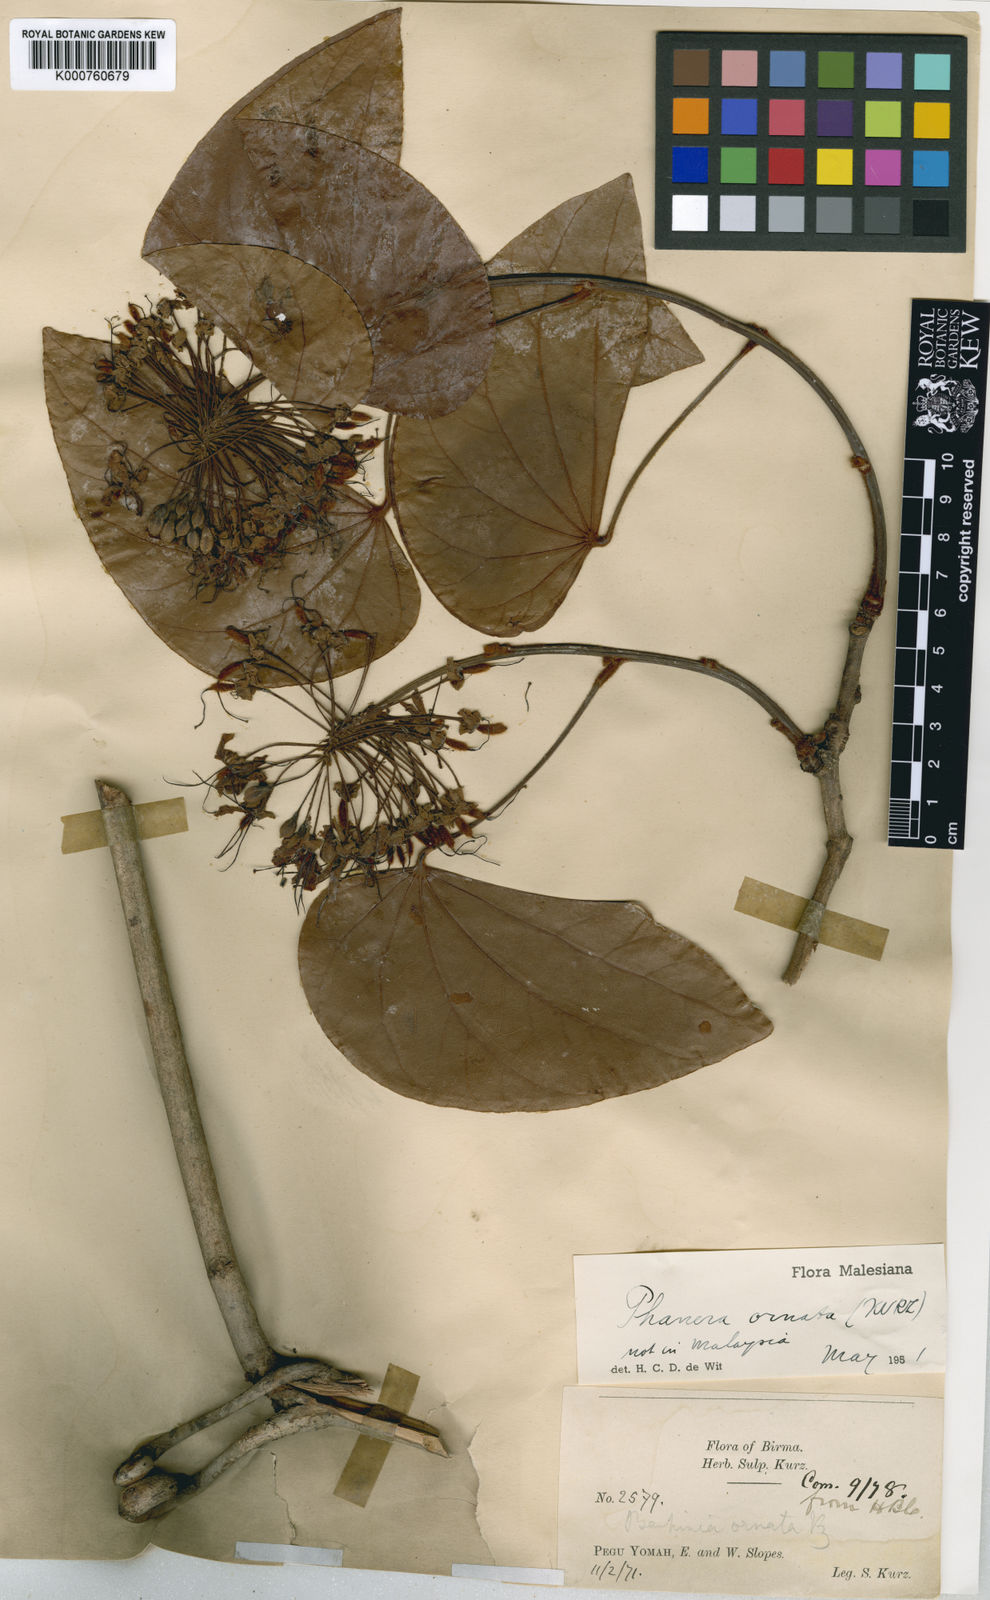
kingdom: Plantae
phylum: Tracheophyta
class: Magnoliopsida
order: Fabales
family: Fabaceae
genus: Phanera
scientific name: Phanera ornata
